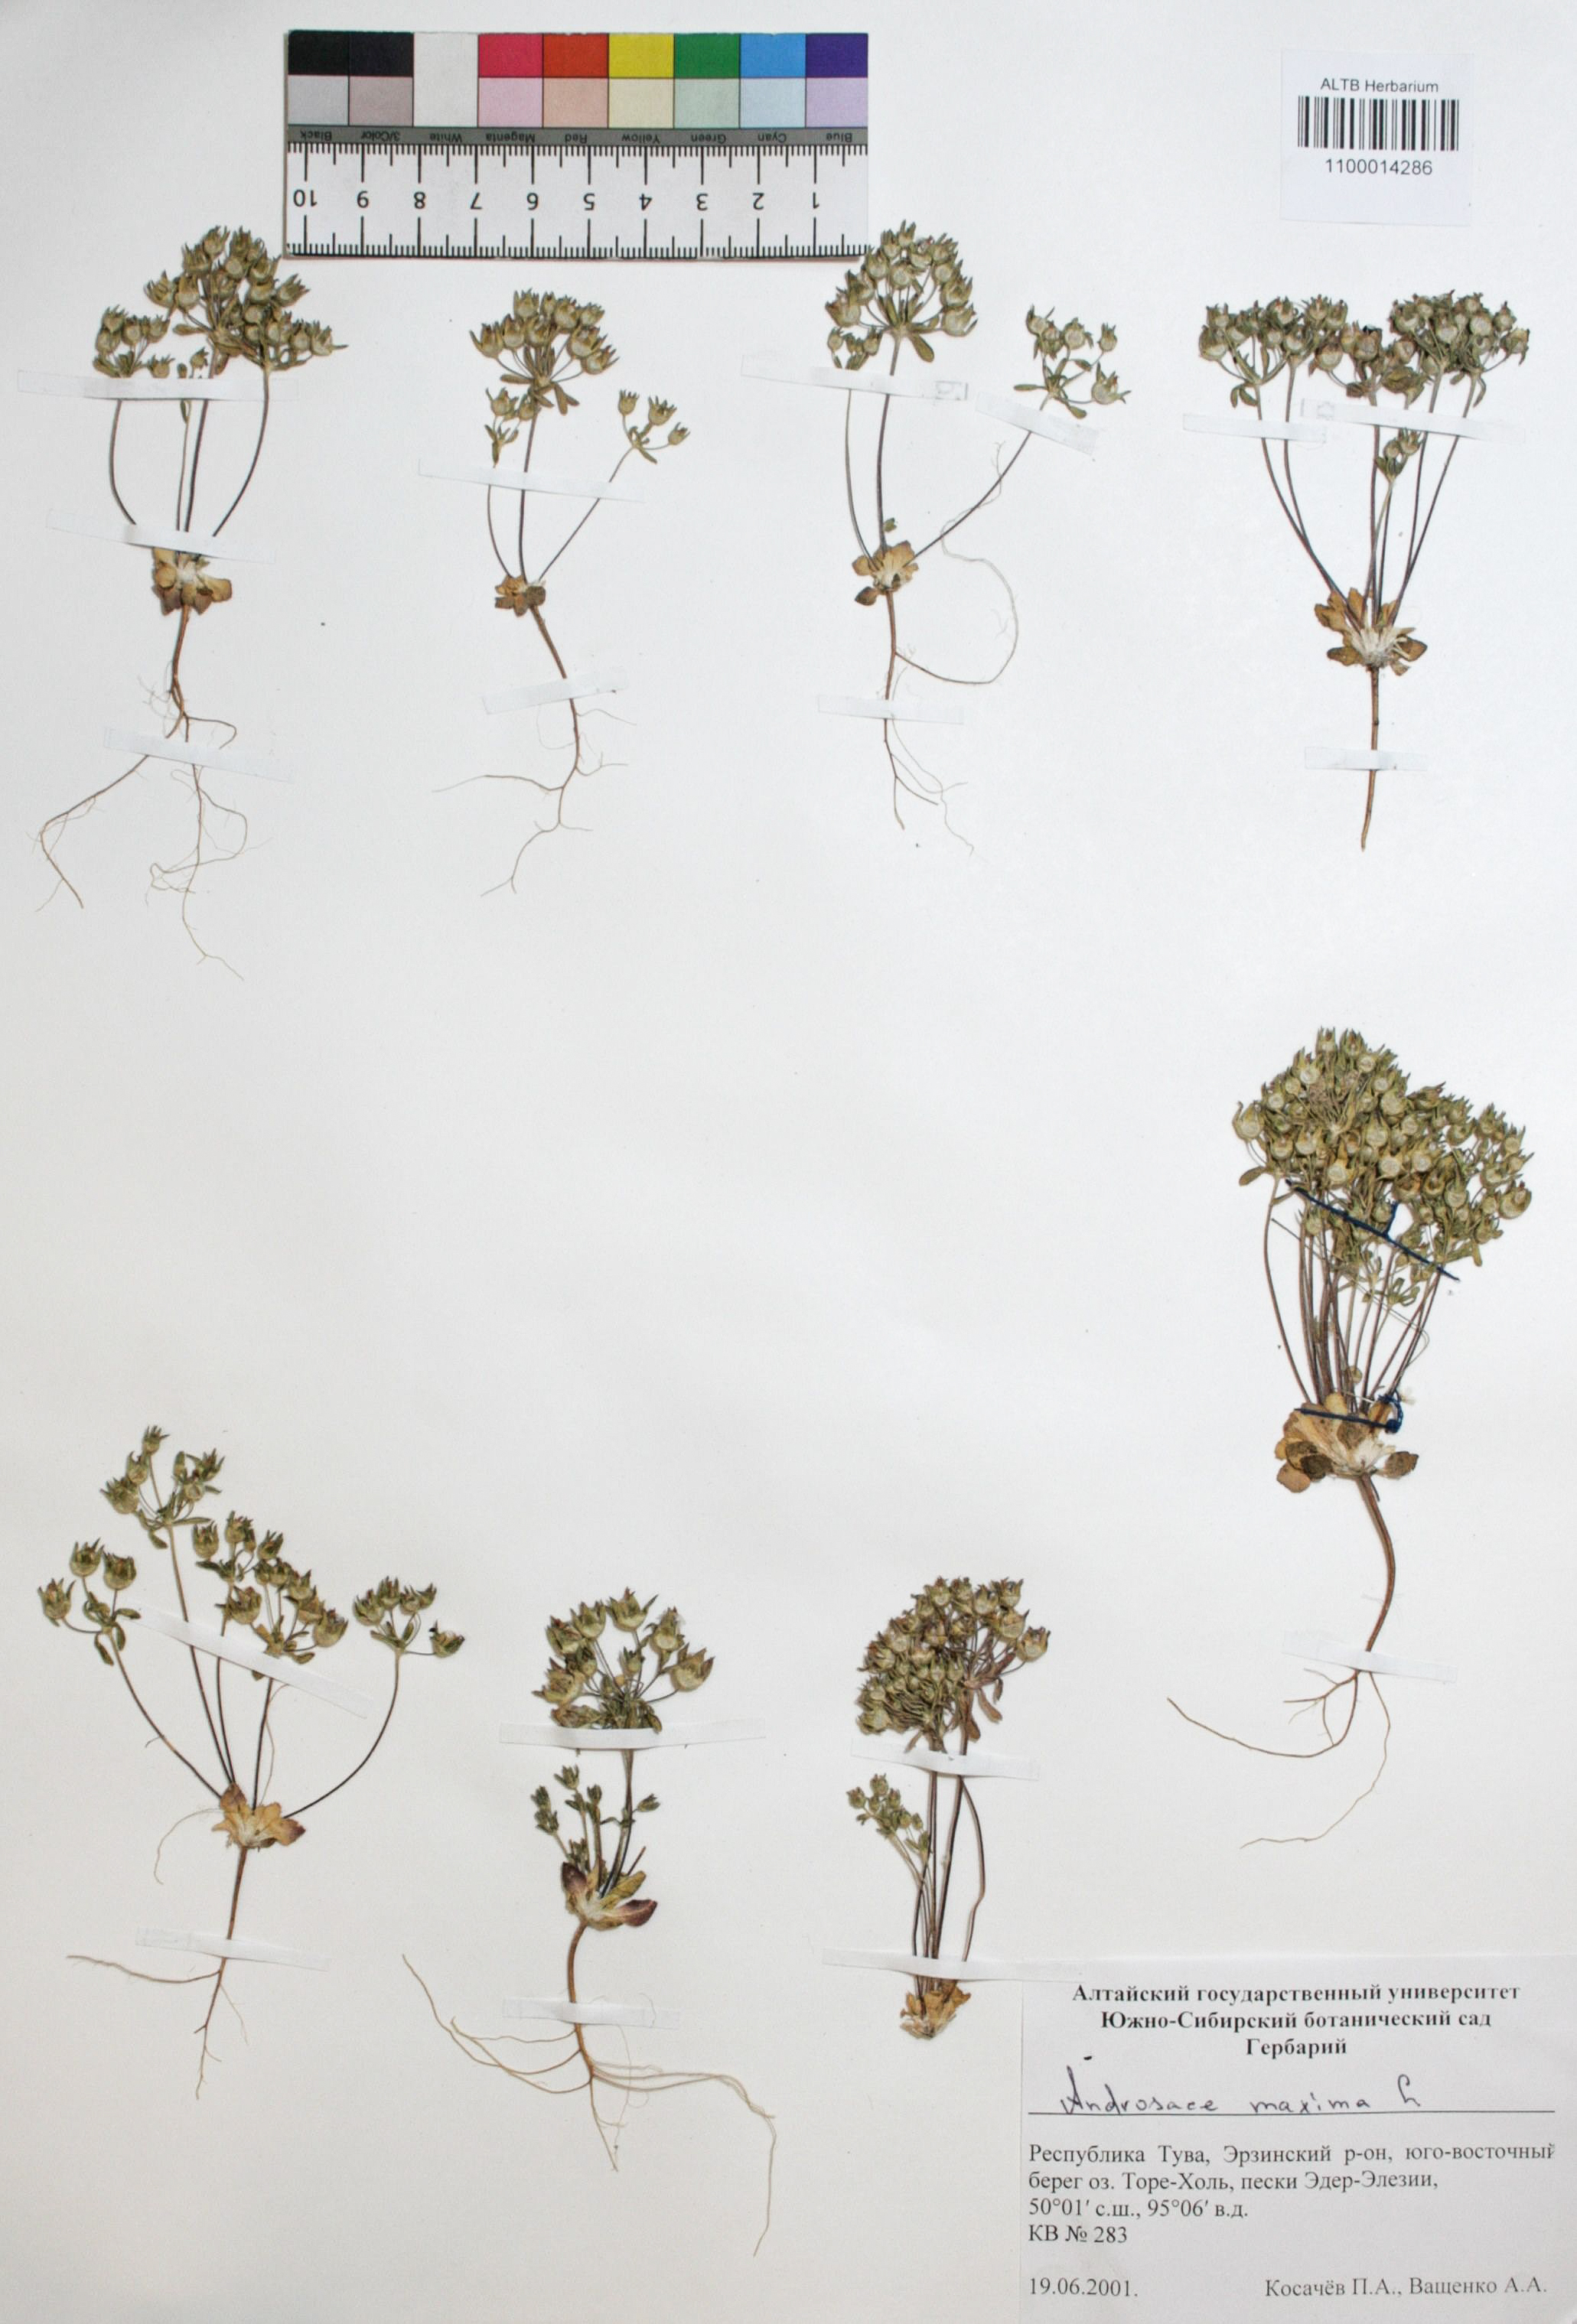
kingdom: Plantae
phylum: Tracheophyta
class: Magnoliopsida
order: Ericales
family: Primulaceae
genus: Androsace
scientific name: Androsace maxima
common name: Annual androsace
